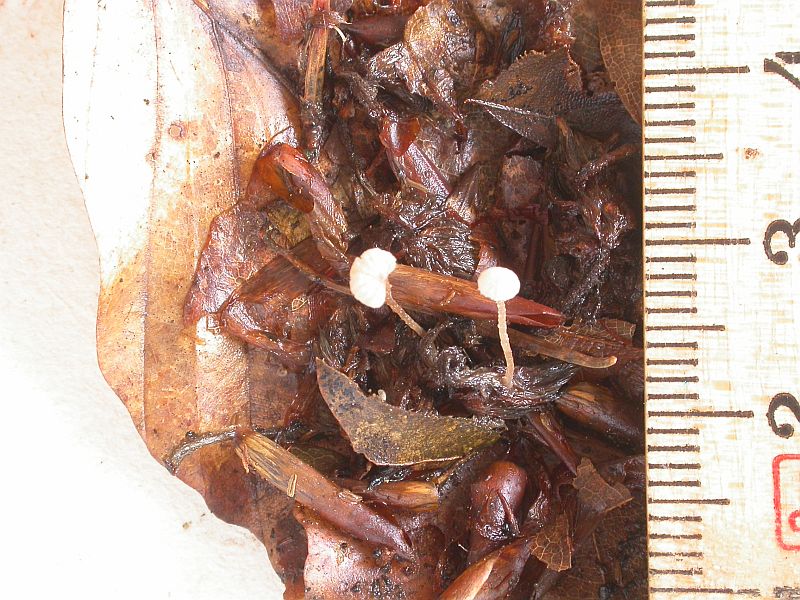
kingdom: Fungi
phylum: Basidiomycota
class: Agaricomycetes
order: Agaricales
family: Tubariaceae
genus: Flammulaster
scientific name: Flammulaster carpophilus
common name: blegrosa grynskælhat
